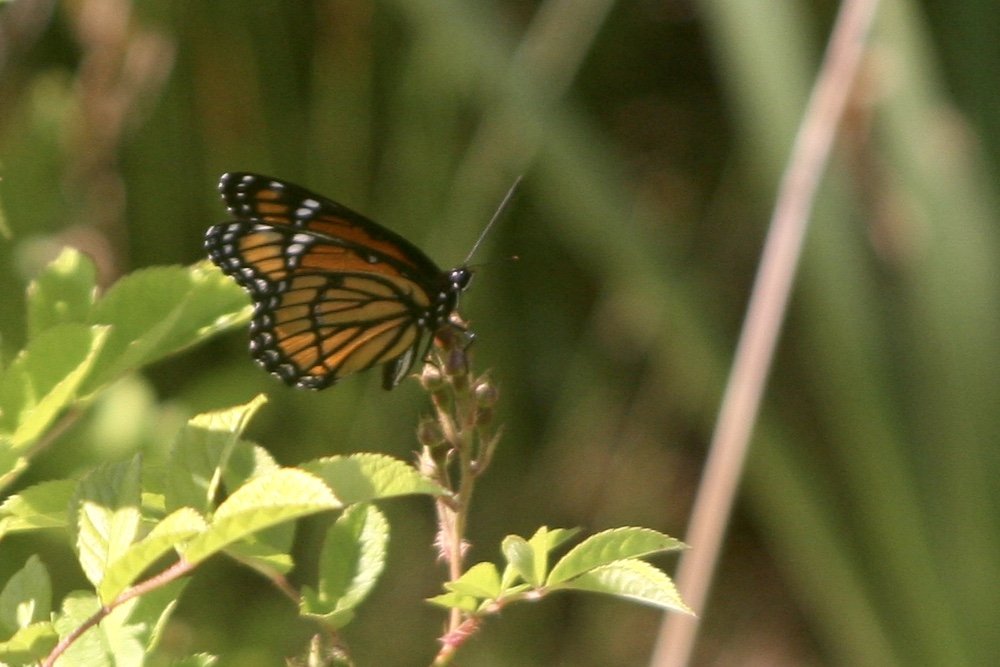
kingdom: Animalia
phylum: Arthropoda
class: Insecta
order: Lepidoptera
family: Nymphalidae
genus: Limenitis
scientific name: Limenitis archippus
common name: Viceroy
